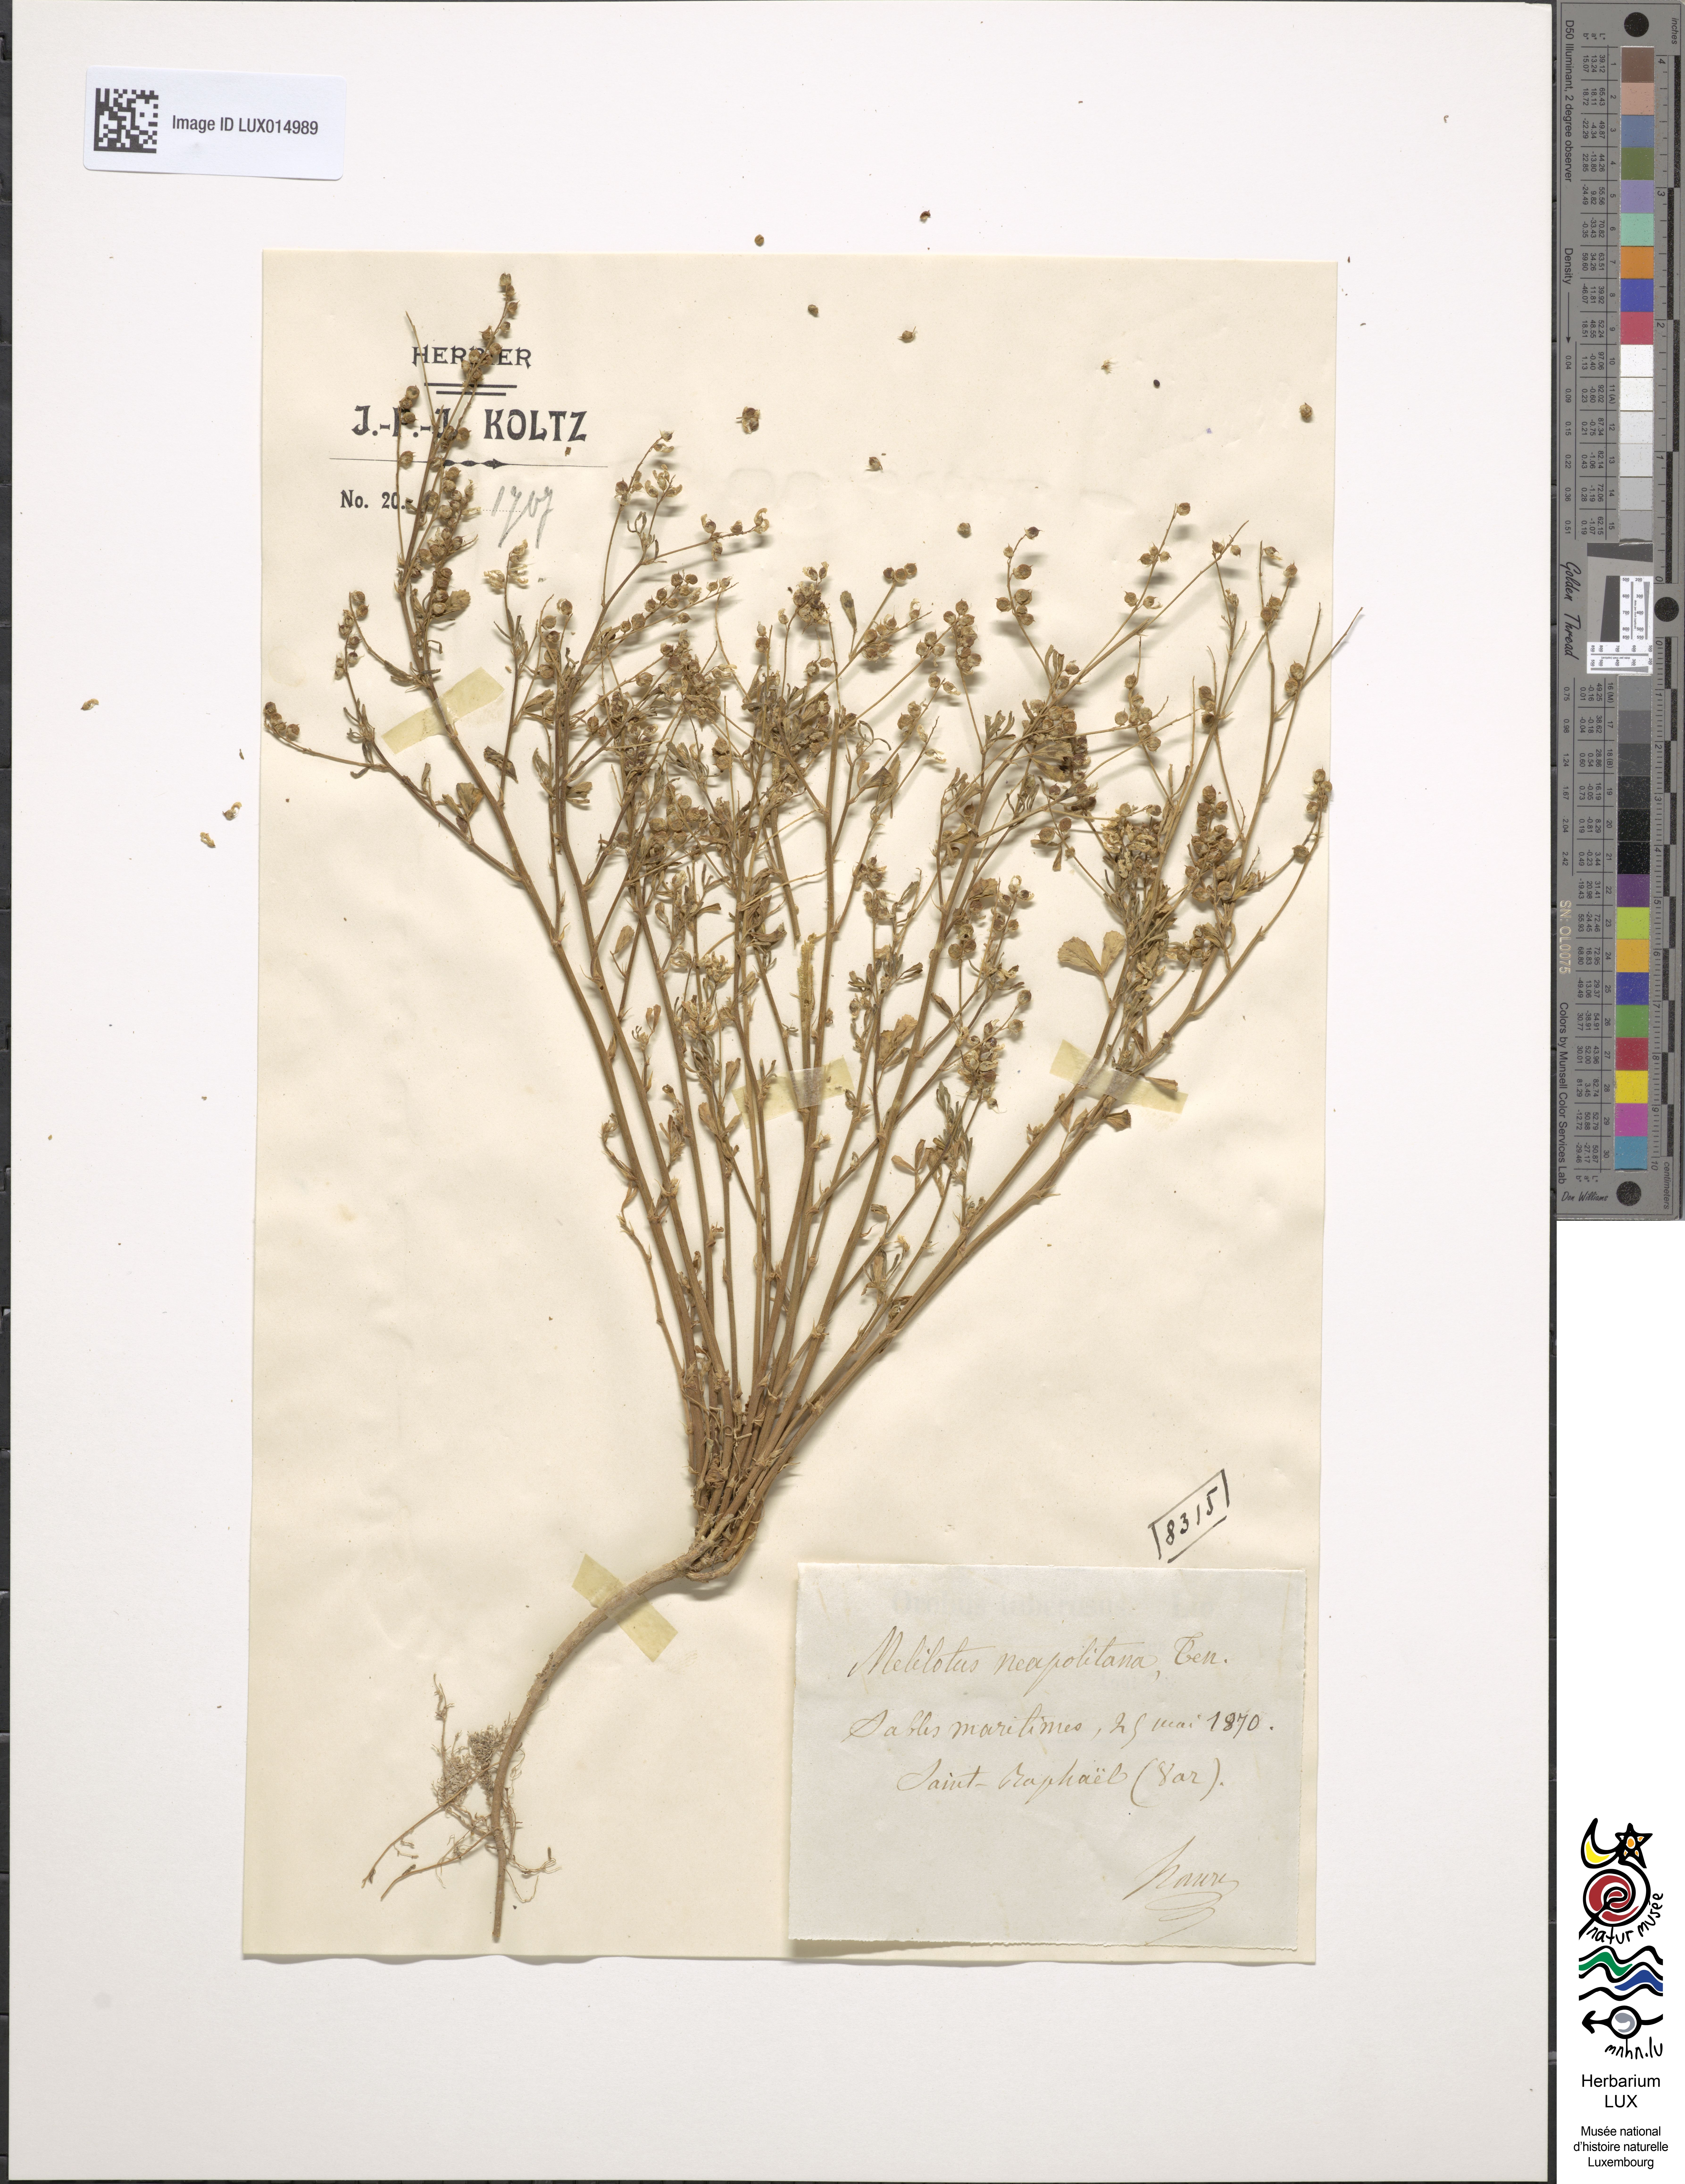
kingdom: Plantae
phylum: Tracheophyta
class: Magnoliopsida
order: Fabales
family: Fabaceae
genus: Melilotus
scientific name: Melilotus neapolitanus
